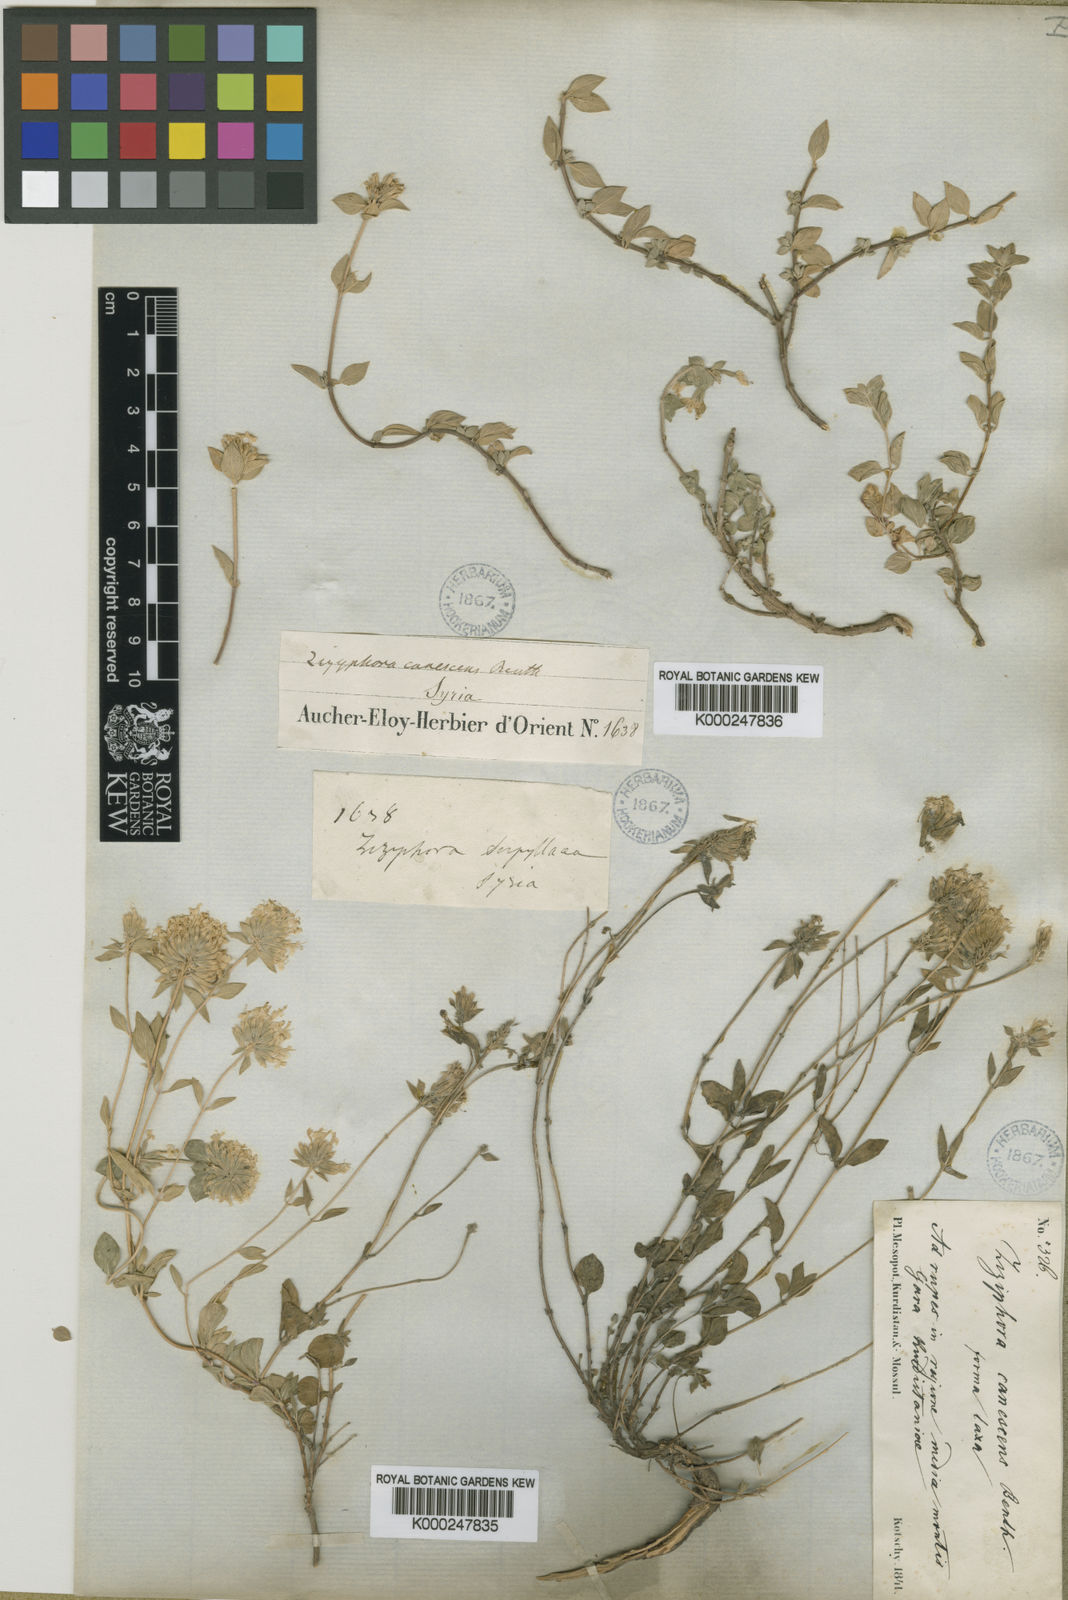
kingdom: Plantae
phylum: Tracheophyta
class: Magnoliopsida
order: Lamiales
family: Lamiaceae
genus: Ziziphora
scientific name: Ziziphora
